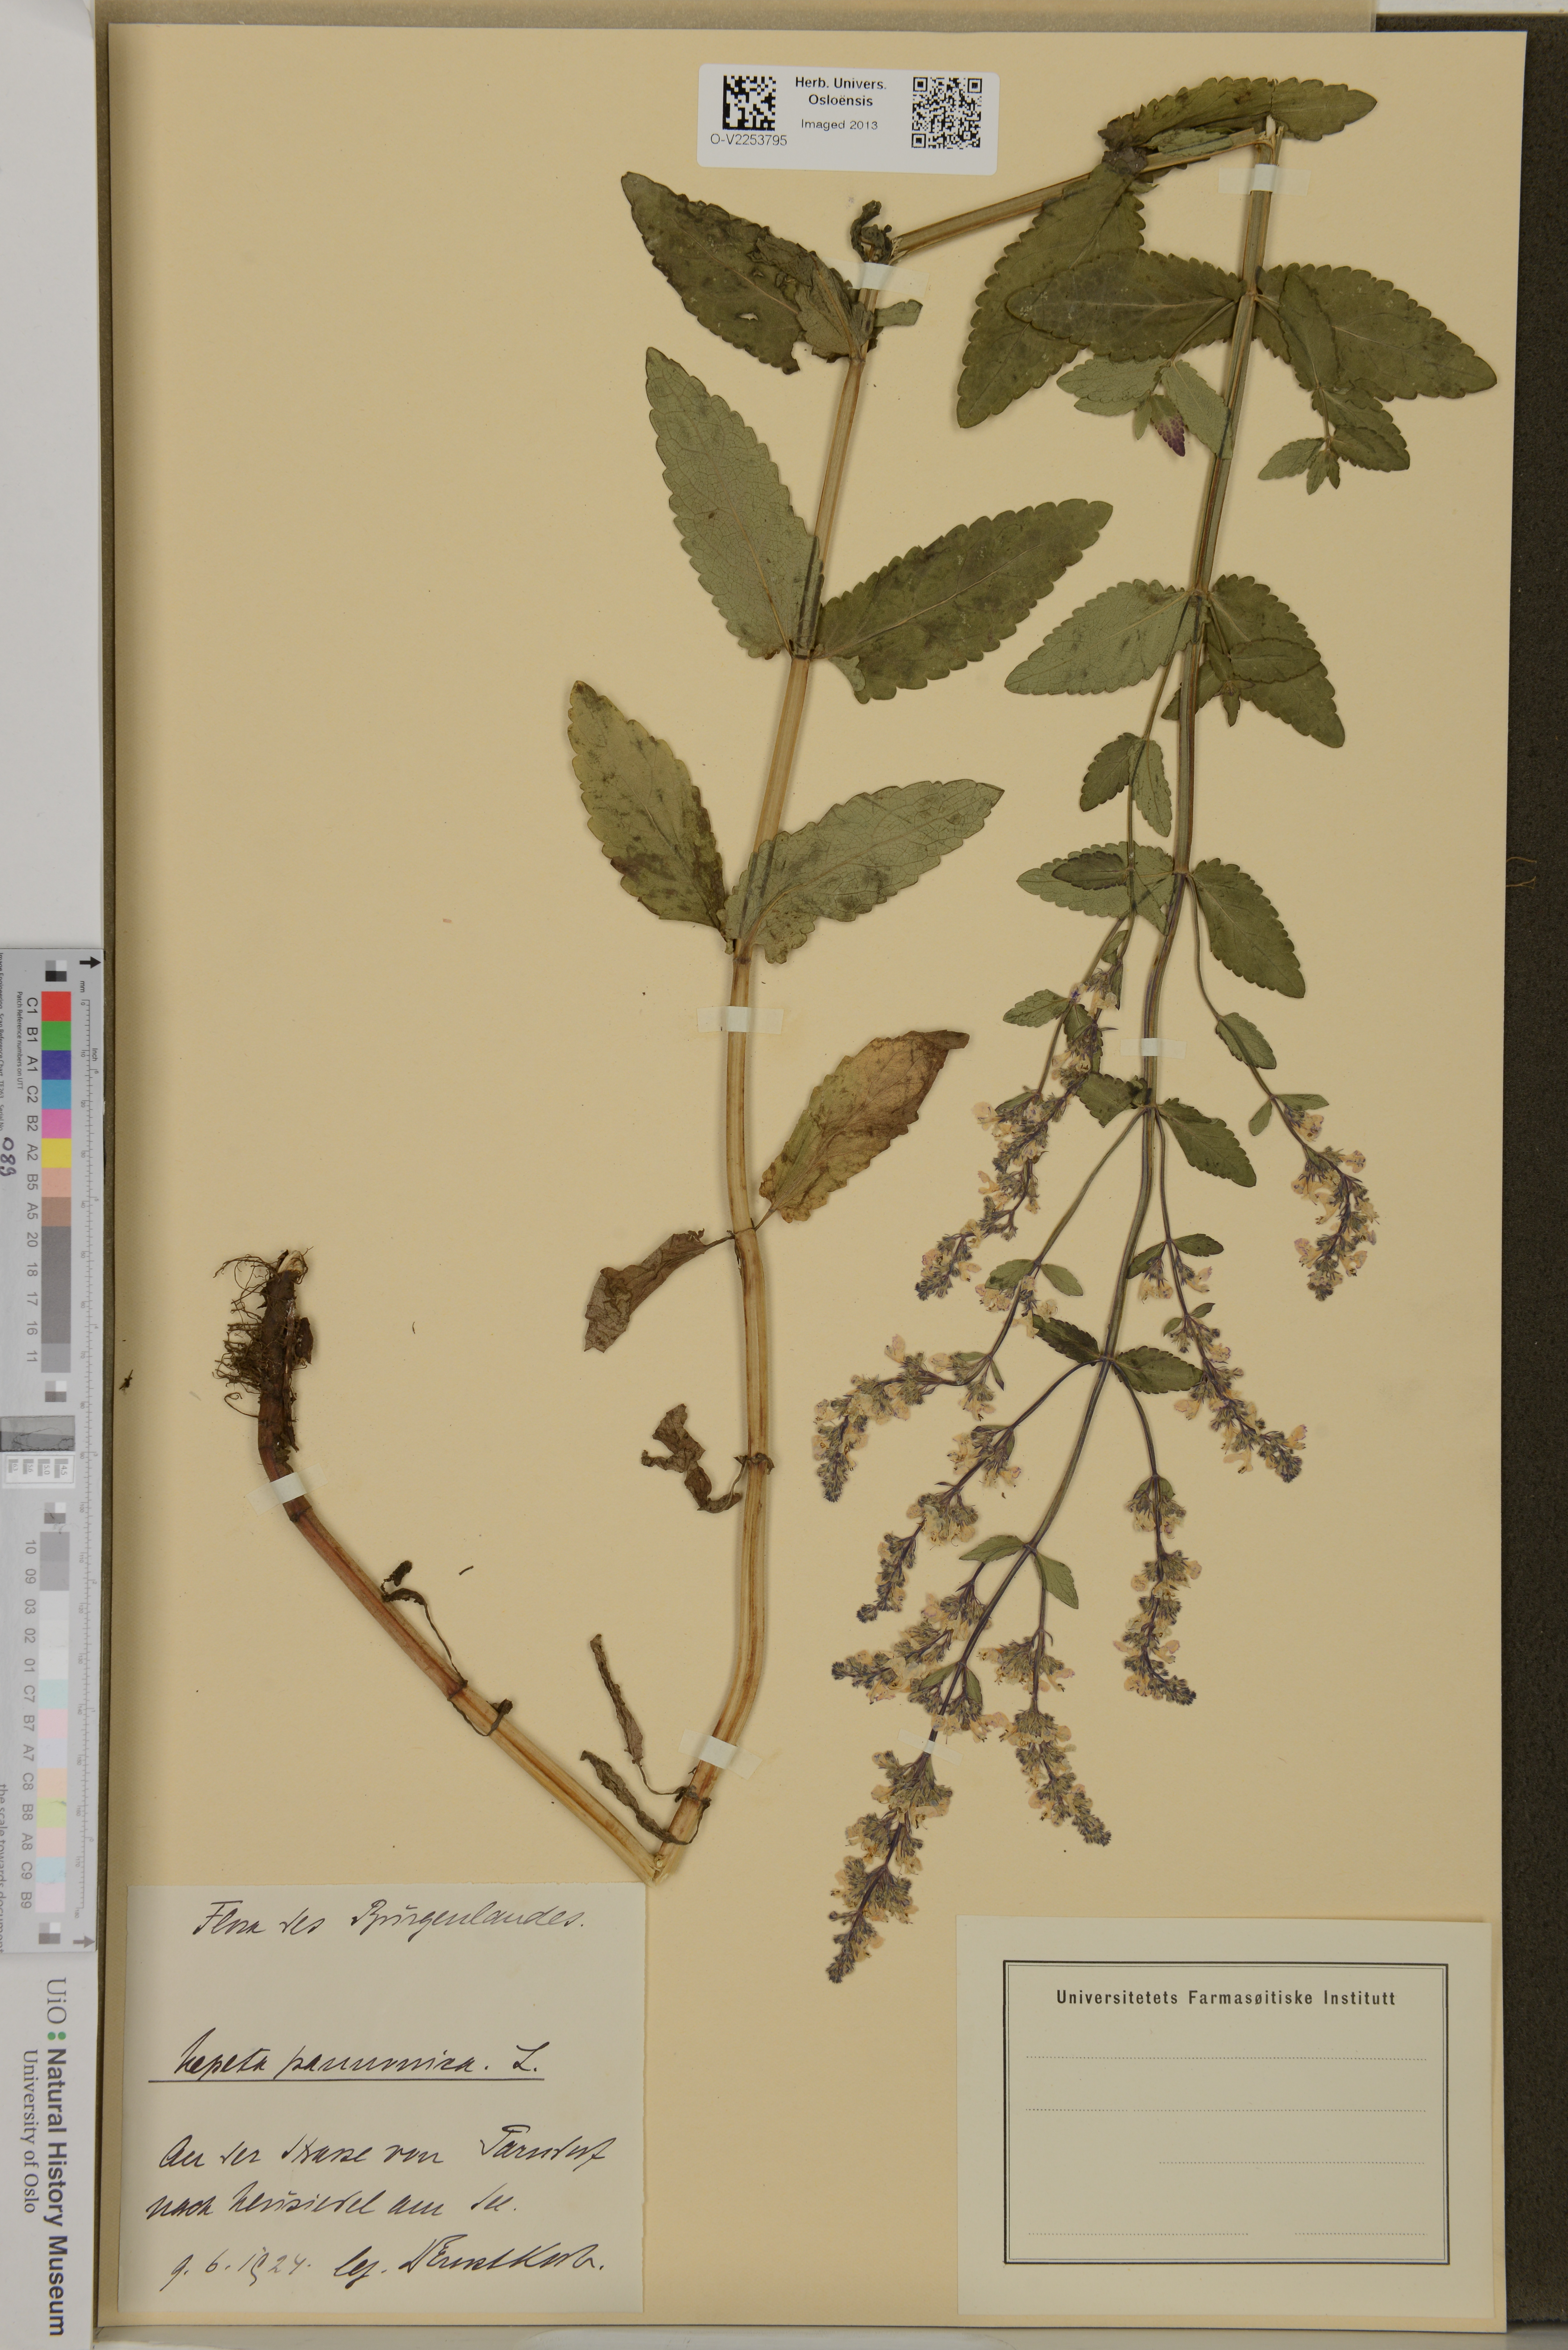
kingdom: Plantae
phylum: Tracheophyta
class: Magnoliopsida
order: Lamiales
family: Lamiaceae
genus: Nepeta
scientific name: Nepeta nuda
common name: Hairless catmint
